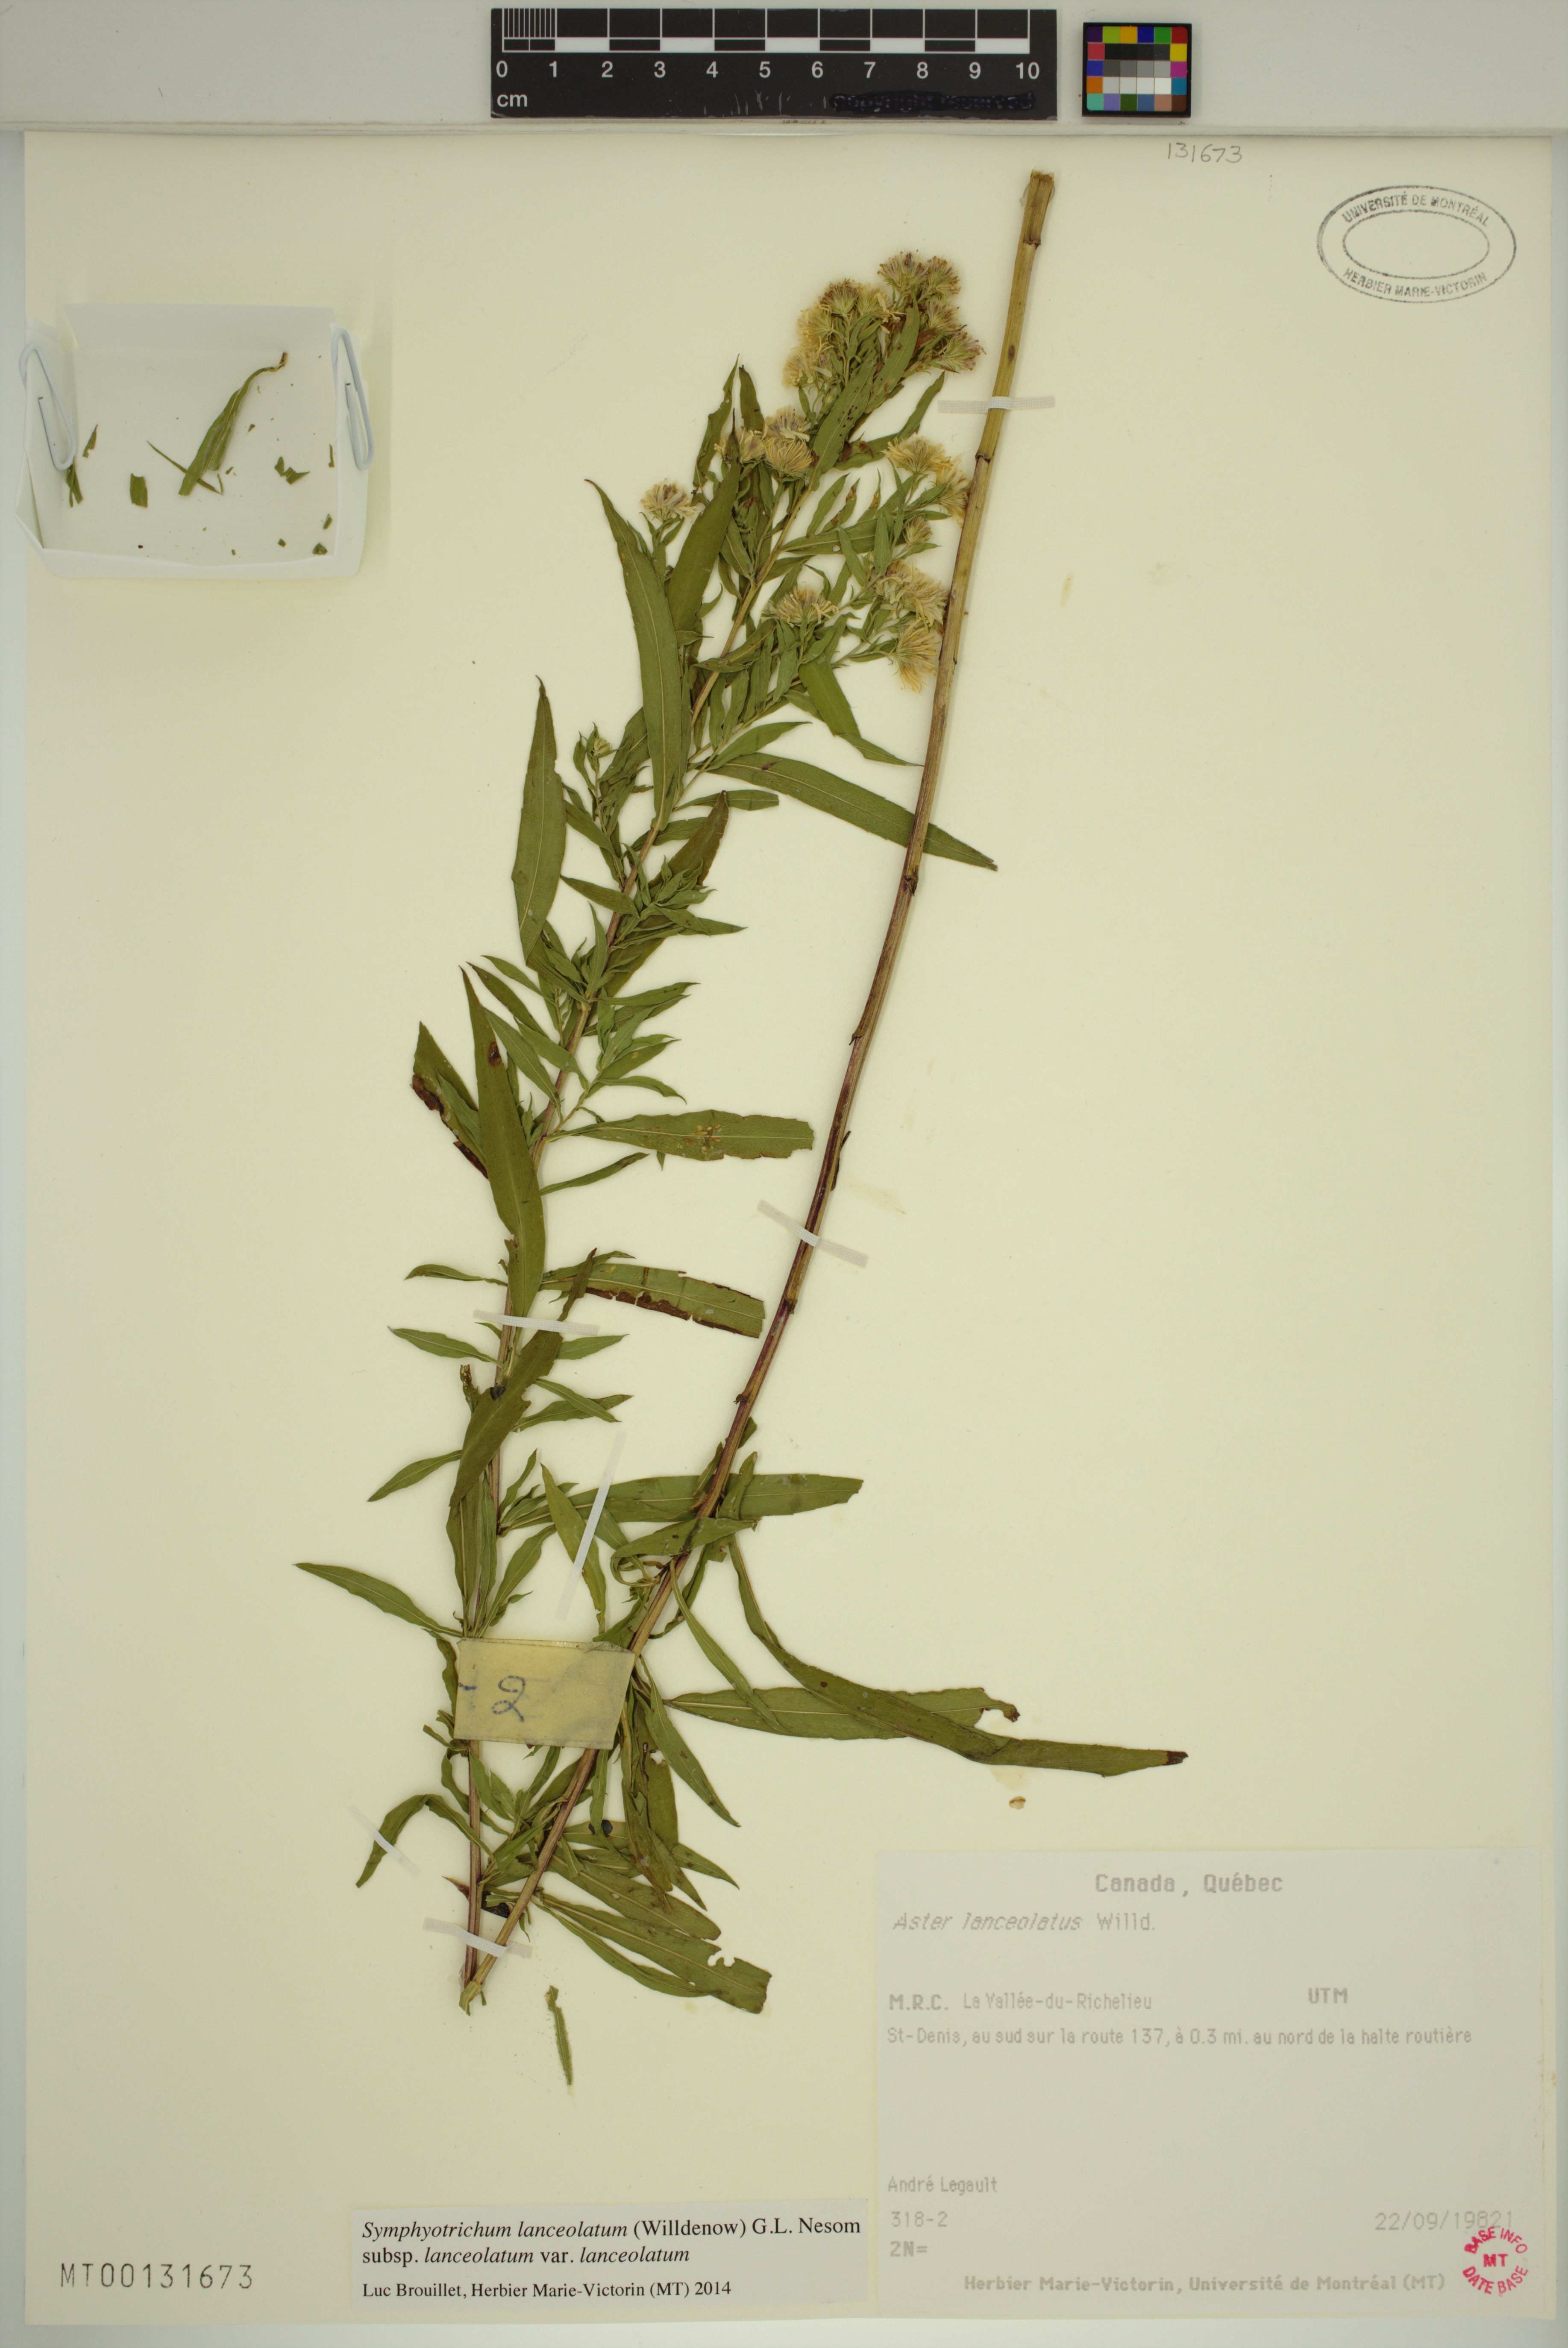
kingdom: Plantae
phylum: Tracheophyta
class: Magnoliopsida
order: Asterales
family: Asteraceae
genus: Symphyotrichum
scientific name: Symphyotrichum lanceolatum
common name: Panicled aster
